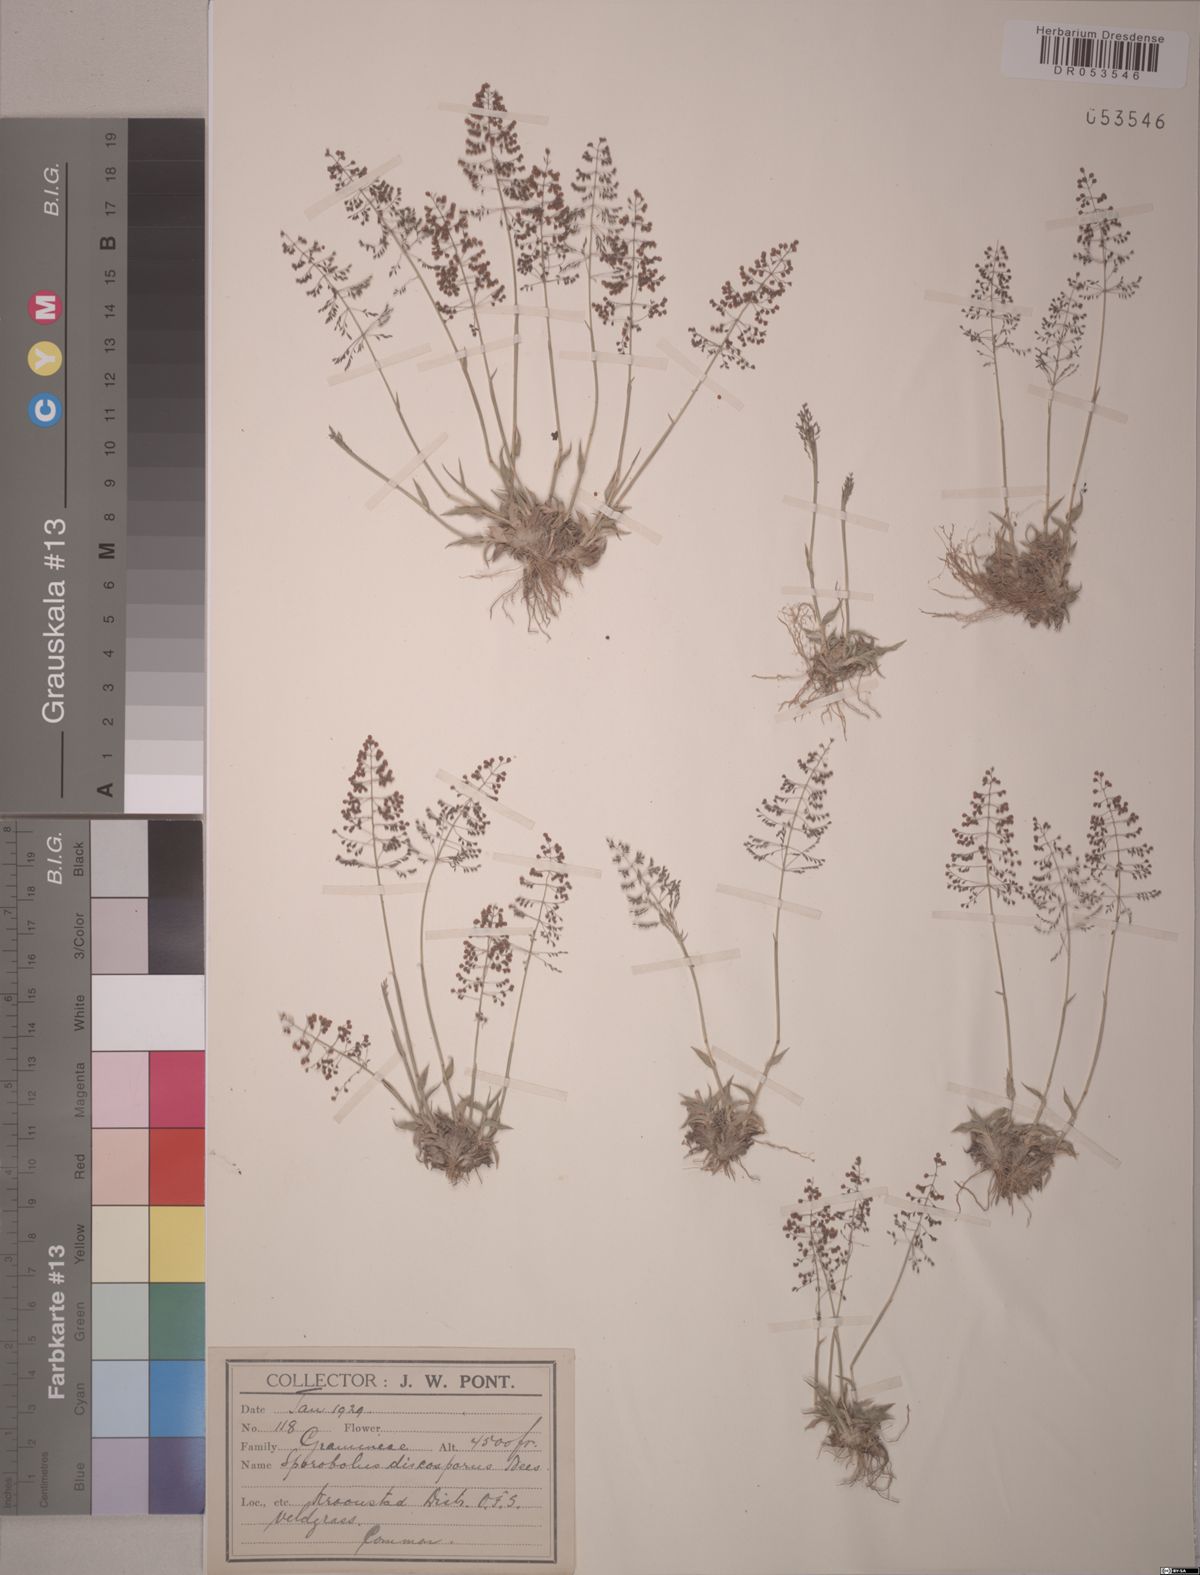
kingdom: Plantae
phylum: Tracheophyta
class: Liliopsida
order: Poales
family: Poaceae
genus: Sporobolus
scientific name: Sporobolus discosporus
